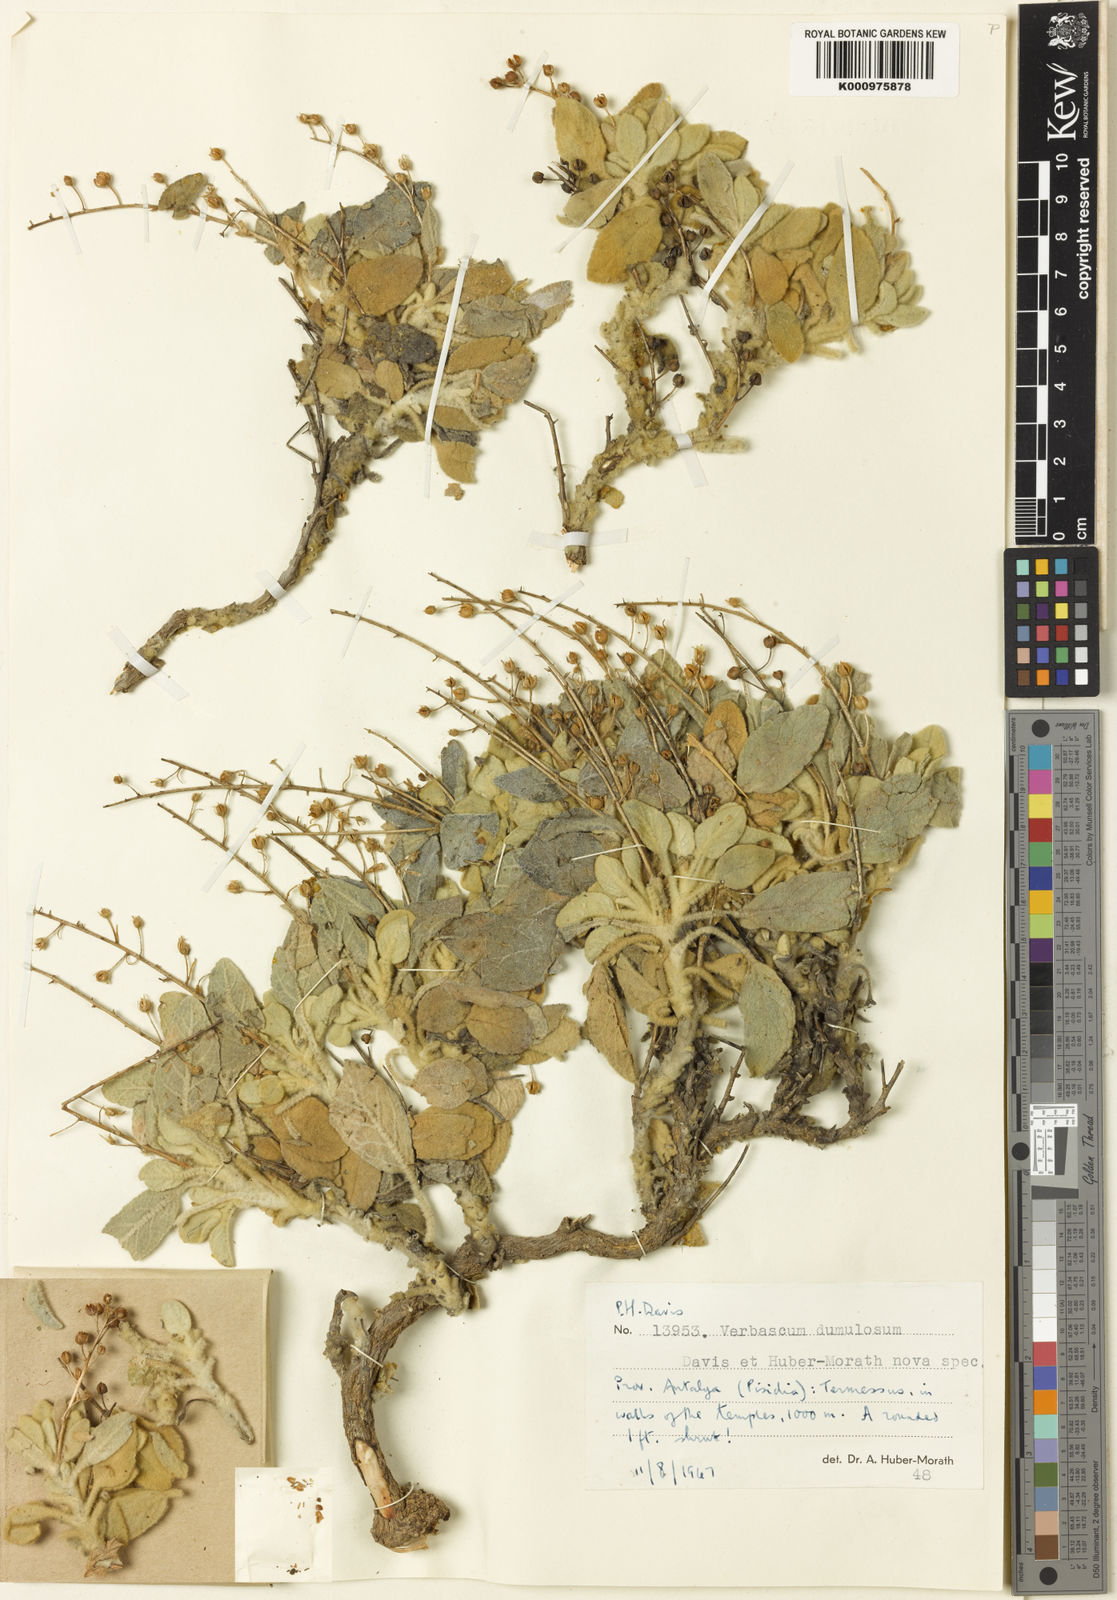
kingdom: Plantae
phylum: Tracheophyta
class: Magnoliopsida
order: Lamiales
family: Scrophulariaceae
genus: Verbascum
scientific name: Verbascum dumulosum
